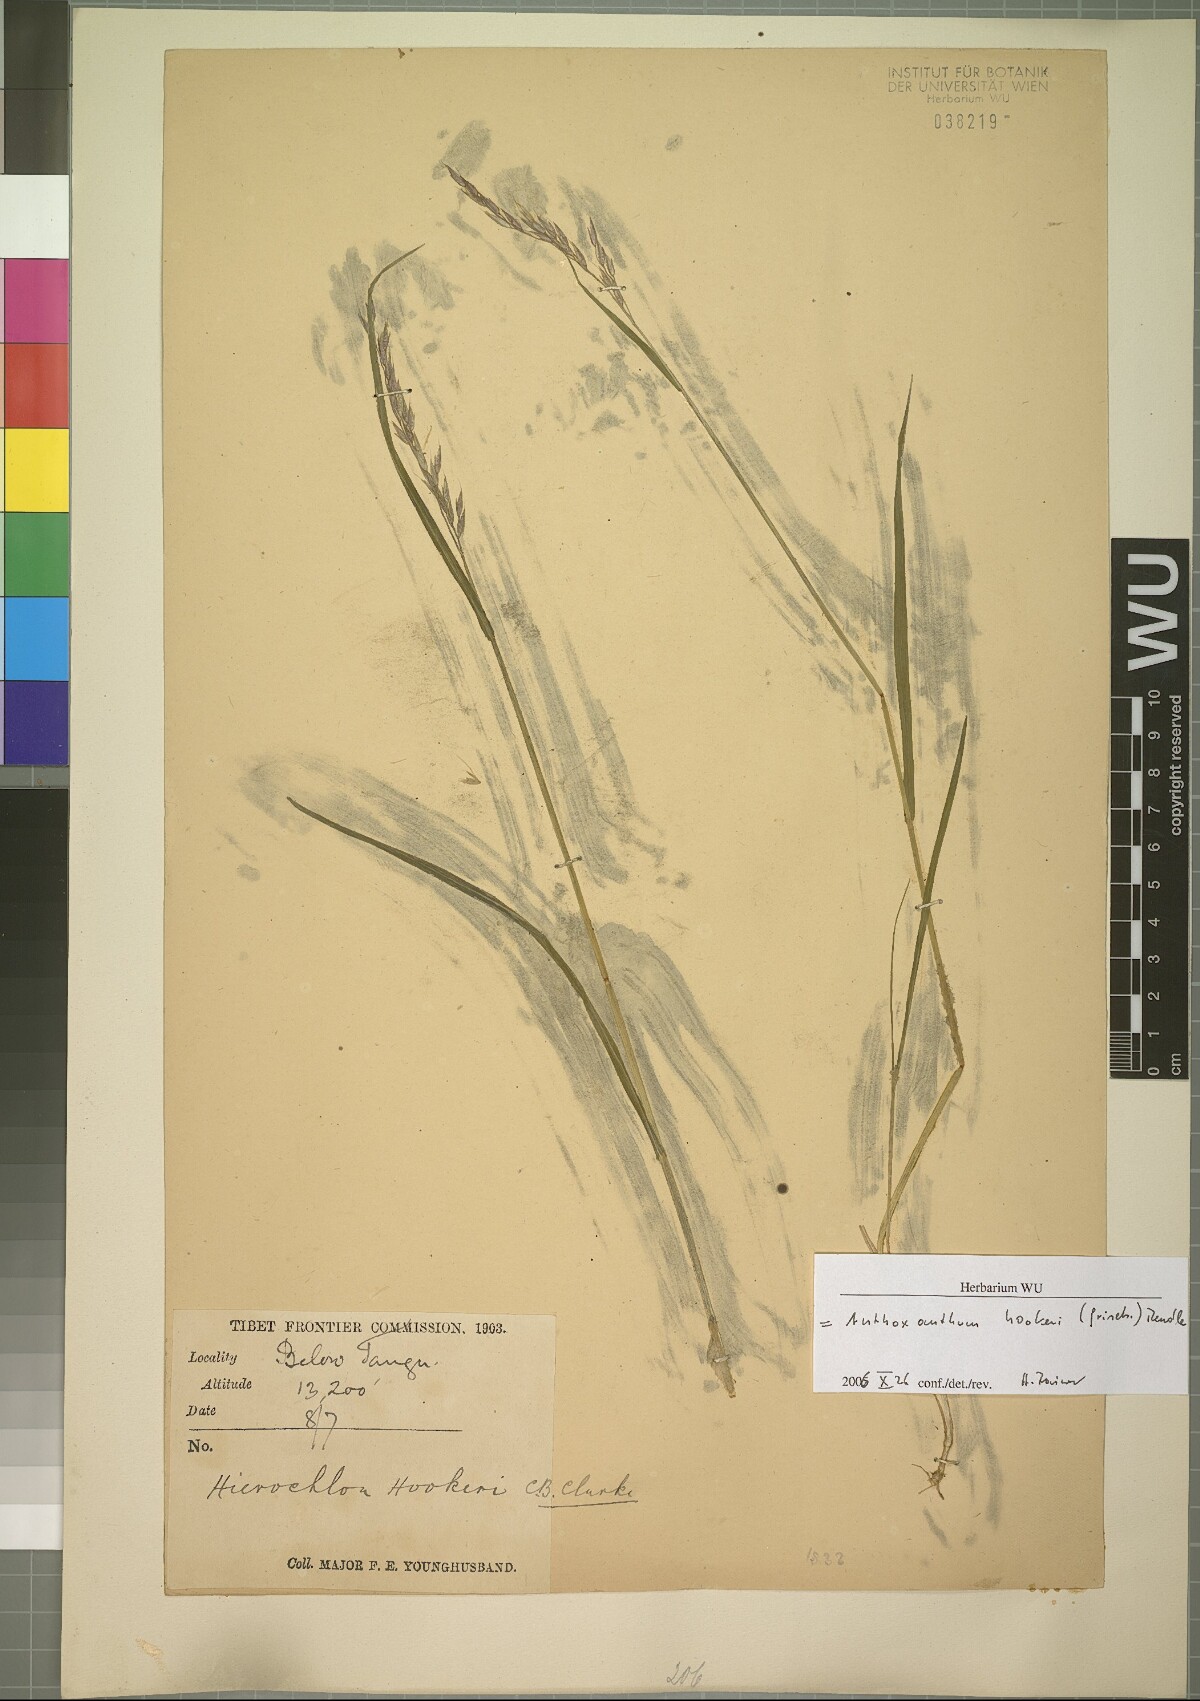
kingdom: Plantae
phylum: Tracheophyta
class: Liliopsida
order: Poales
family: Poaceae
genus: Anthoxanthum
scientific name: Anthoxanthum hookeri
